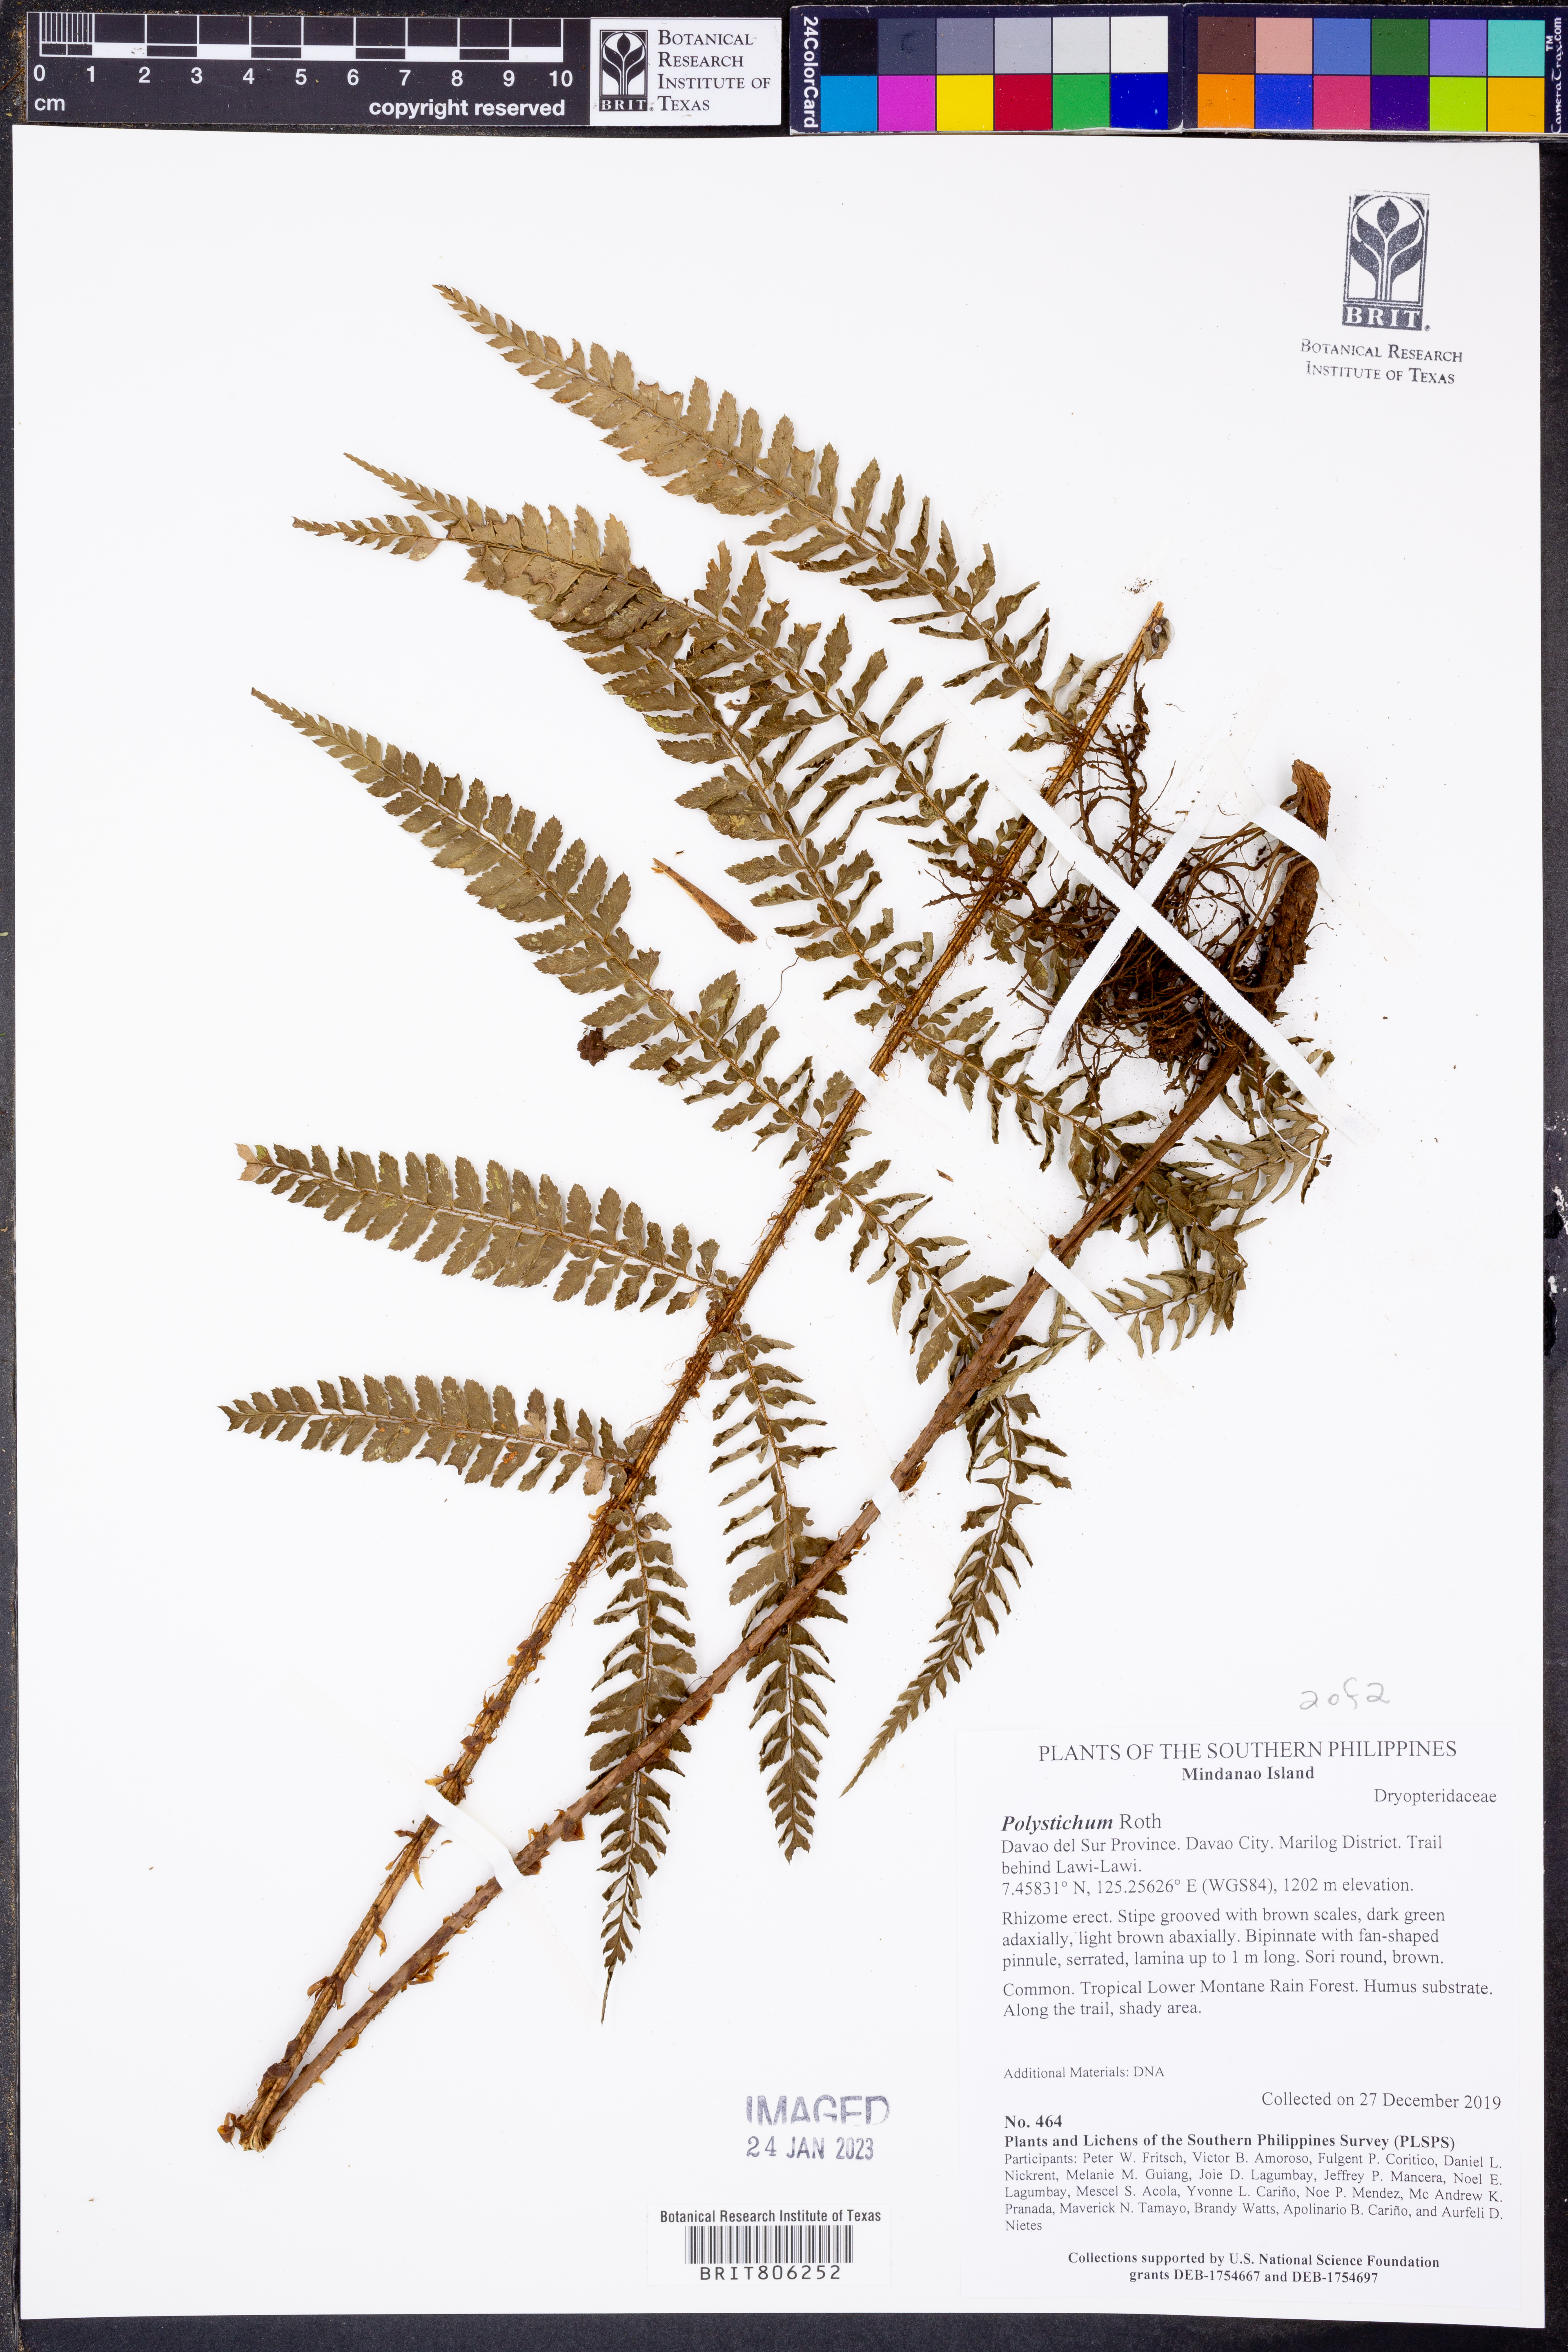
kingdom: Plantae
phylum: Tracheophyta
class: Polypodiopsida
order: Polypodiales
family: Dryopteridaceae
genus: Polystichum
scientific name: Polystichum
